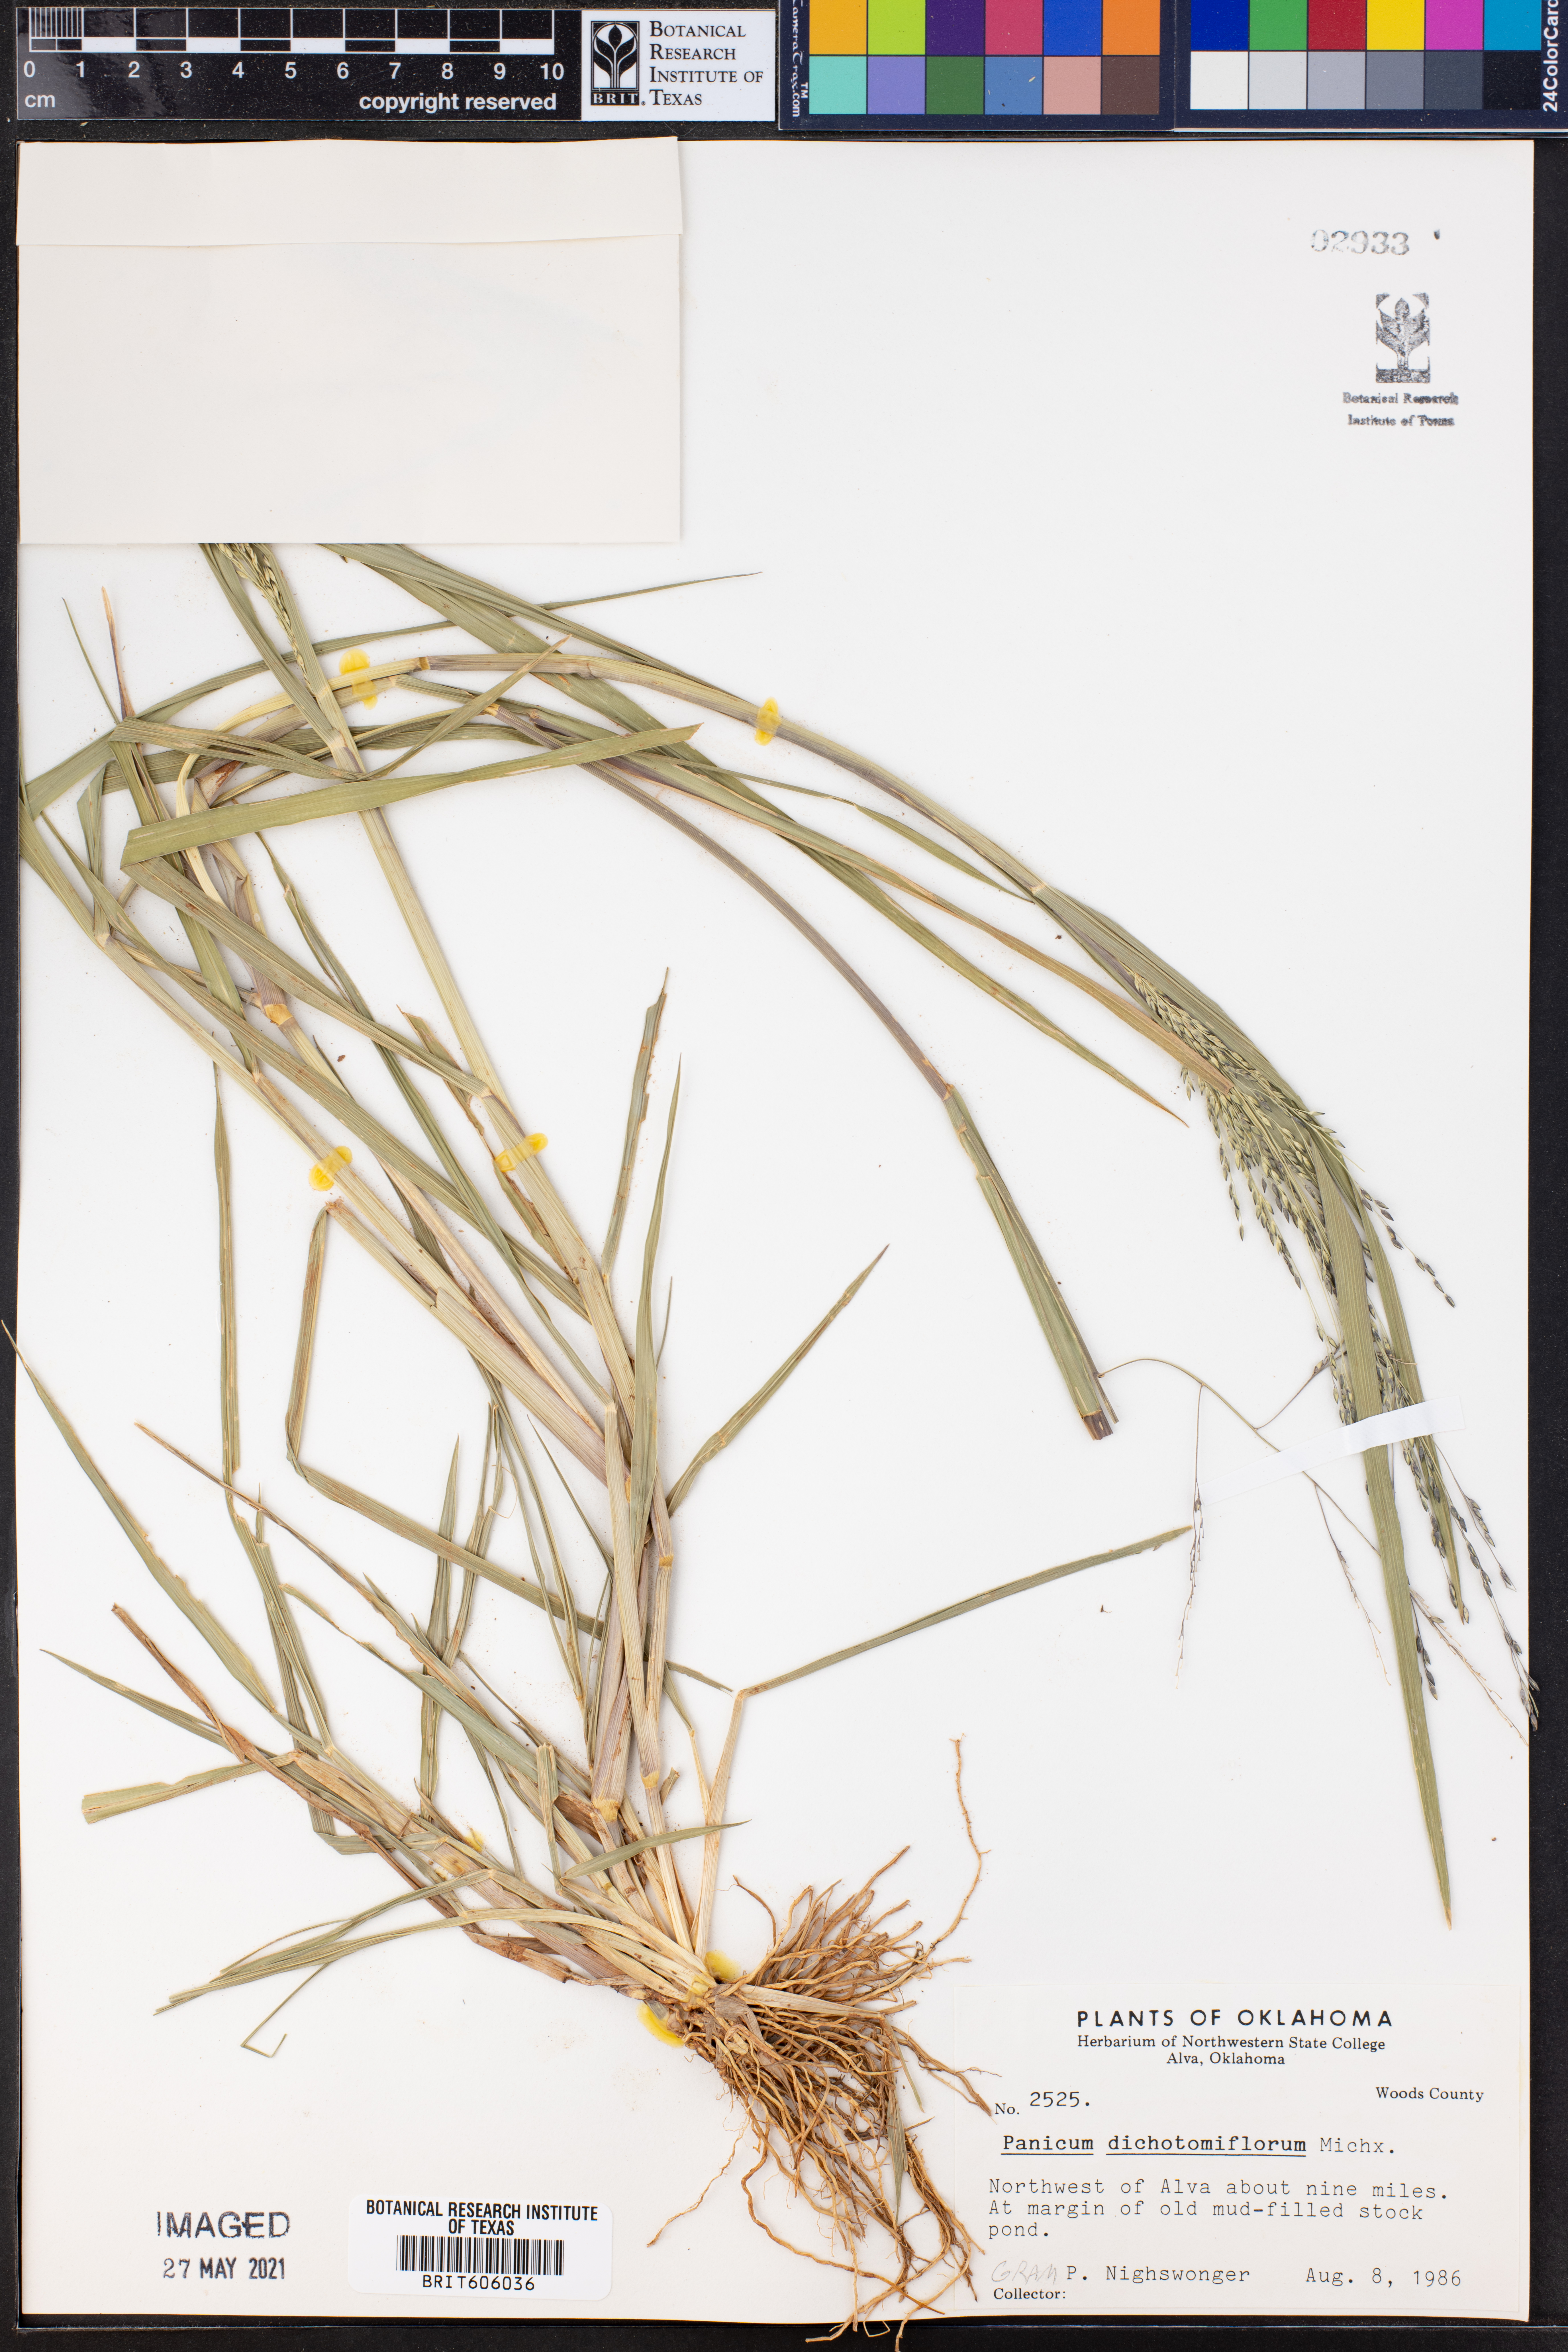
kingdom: Plantae
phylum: Tracheophyta
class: Liliopsida
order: Poales
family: Poaceae
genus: Panicum
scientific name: Panicum dichotomiflorum
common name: Autumn millet
